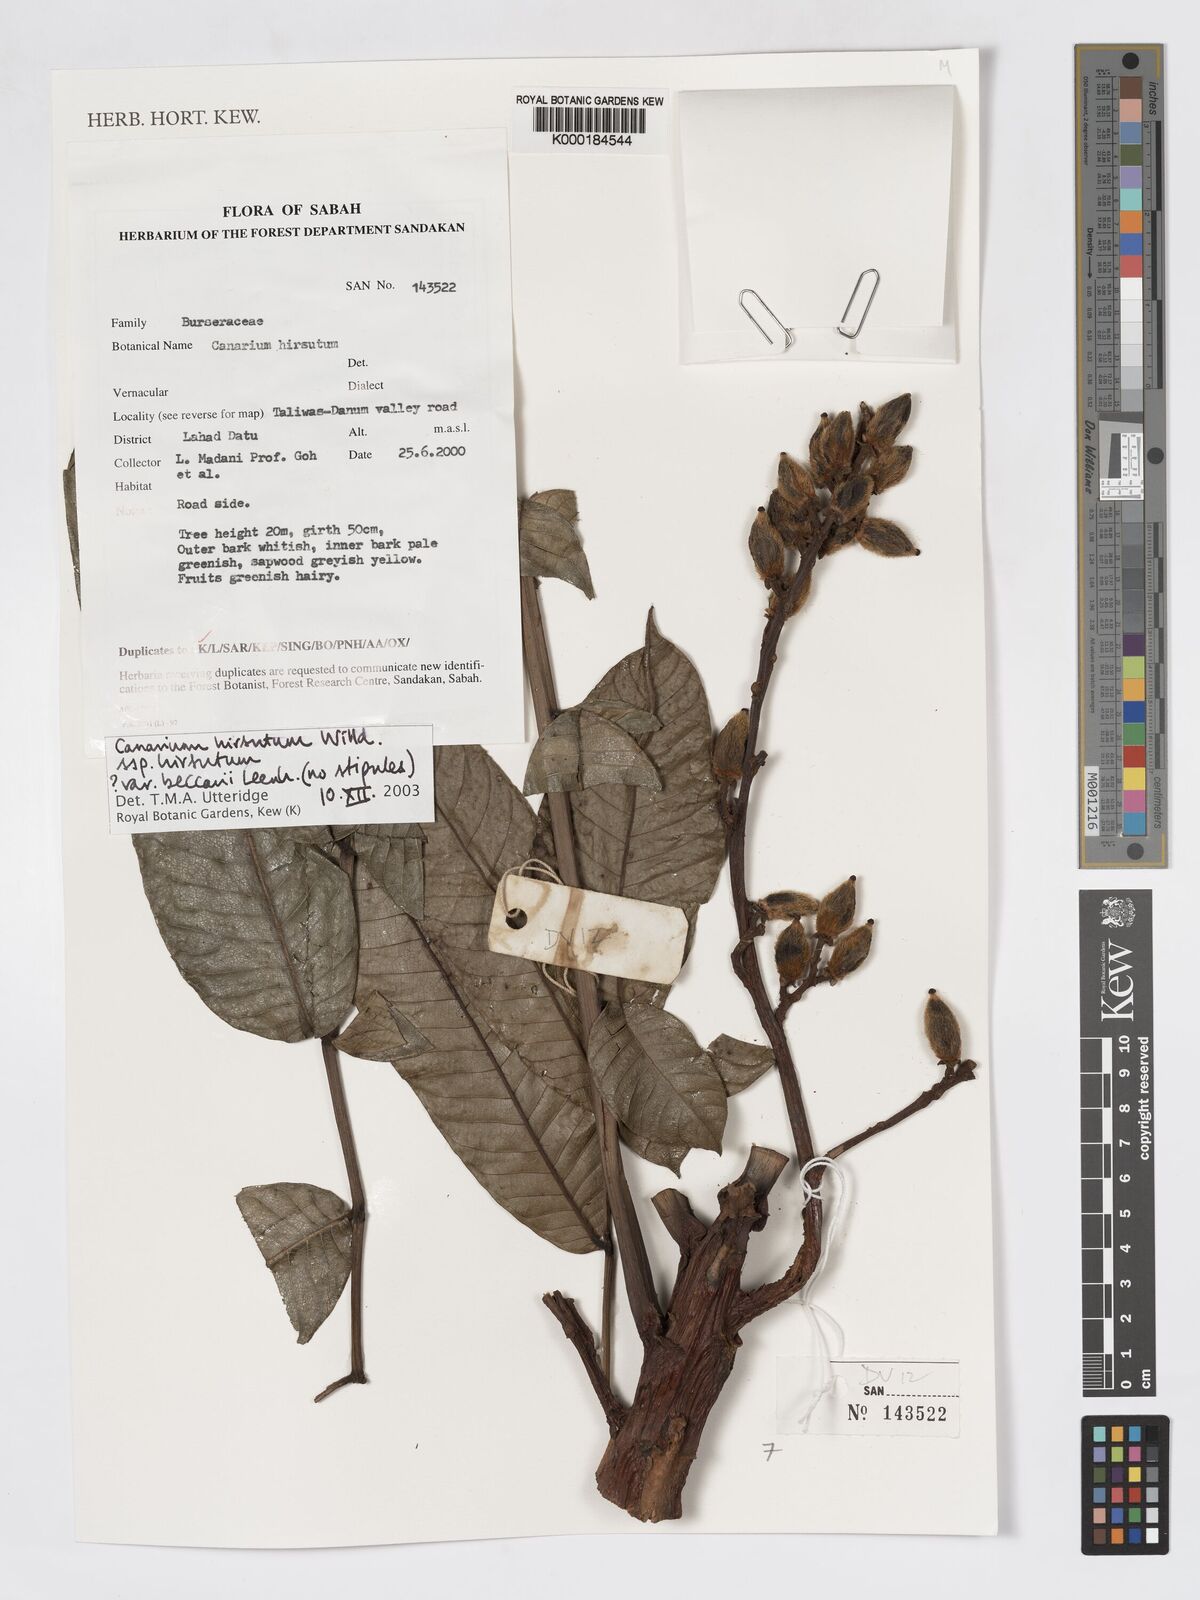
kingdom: Plantae
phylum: Tracheophyta
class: Magnoliopsida
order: Sapindales
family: Burseraceae
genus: Canarium
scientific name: Canarium hirsutum
